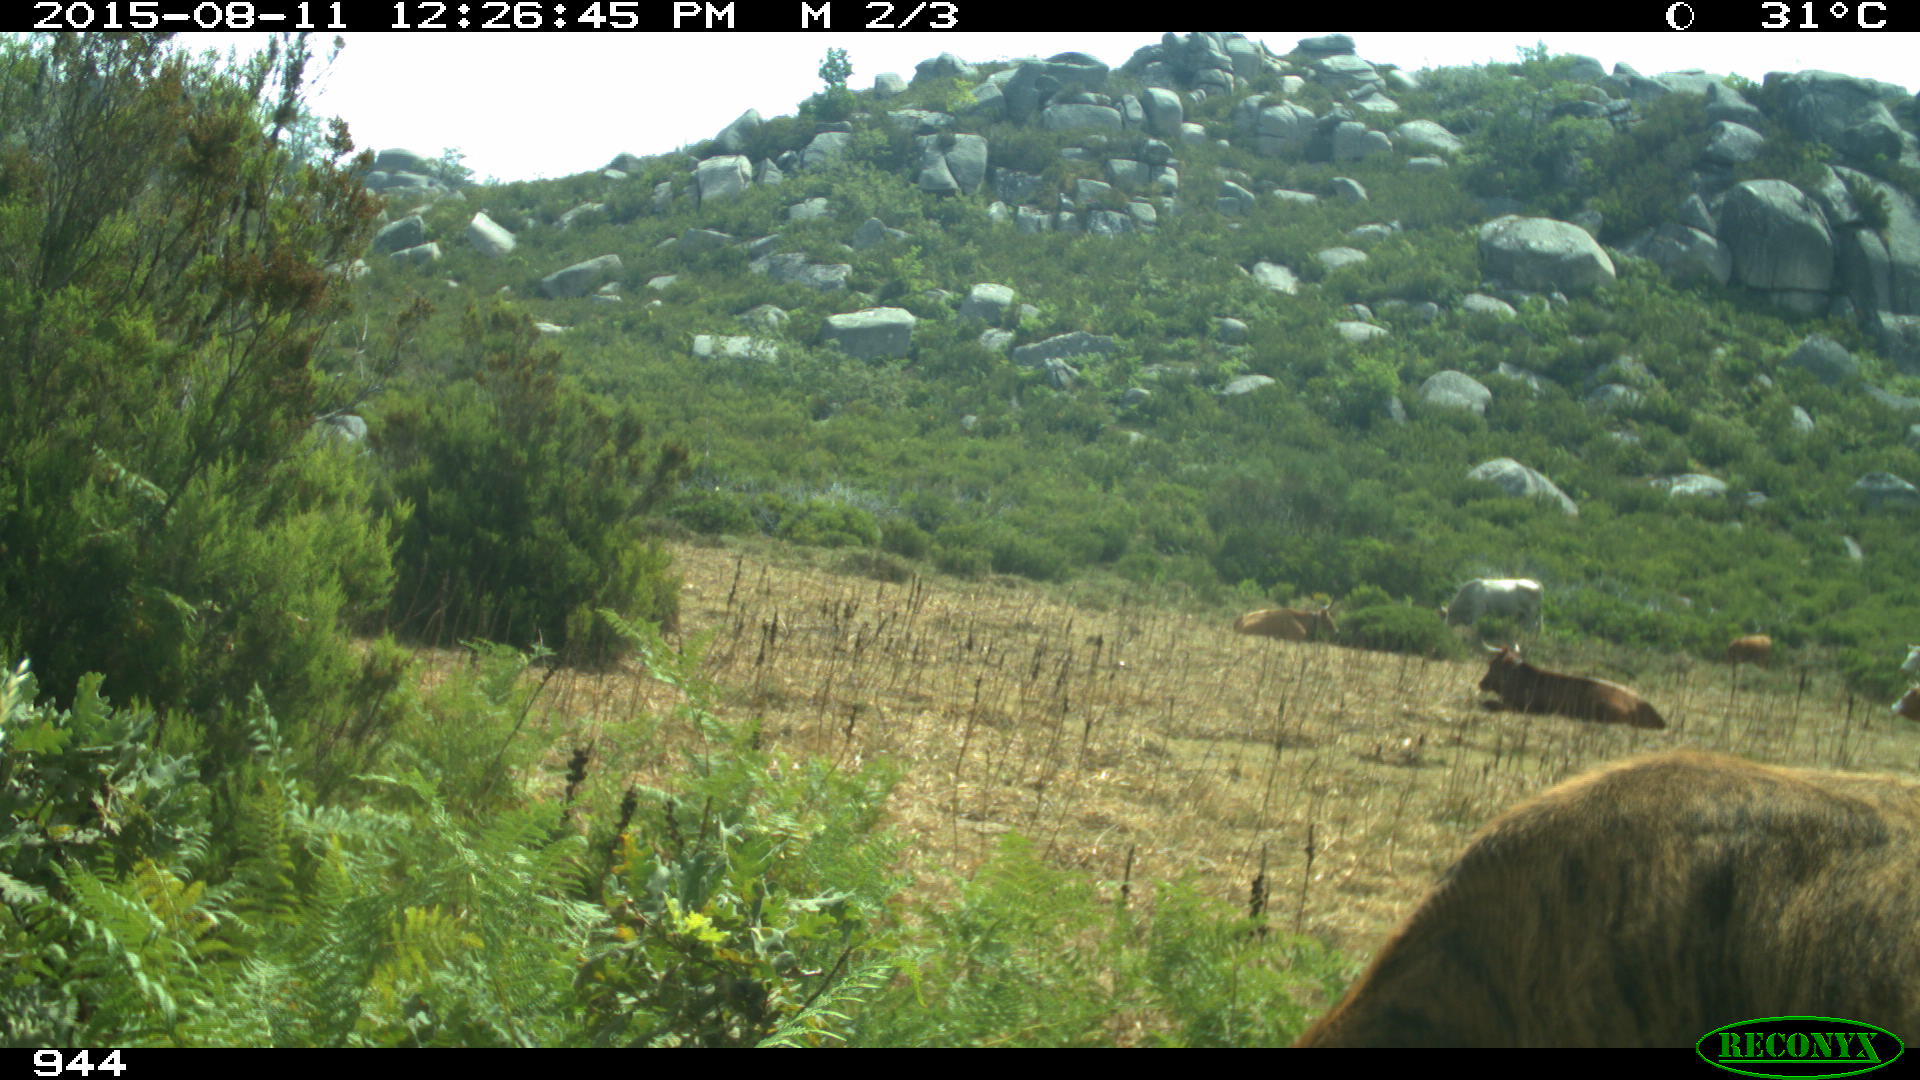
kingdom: Animalia
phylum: Chordata
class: Mammalia
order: Artiodactyla
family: Bovidae
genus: Bos
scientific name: Bos taurus
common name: Domesticated cattle
